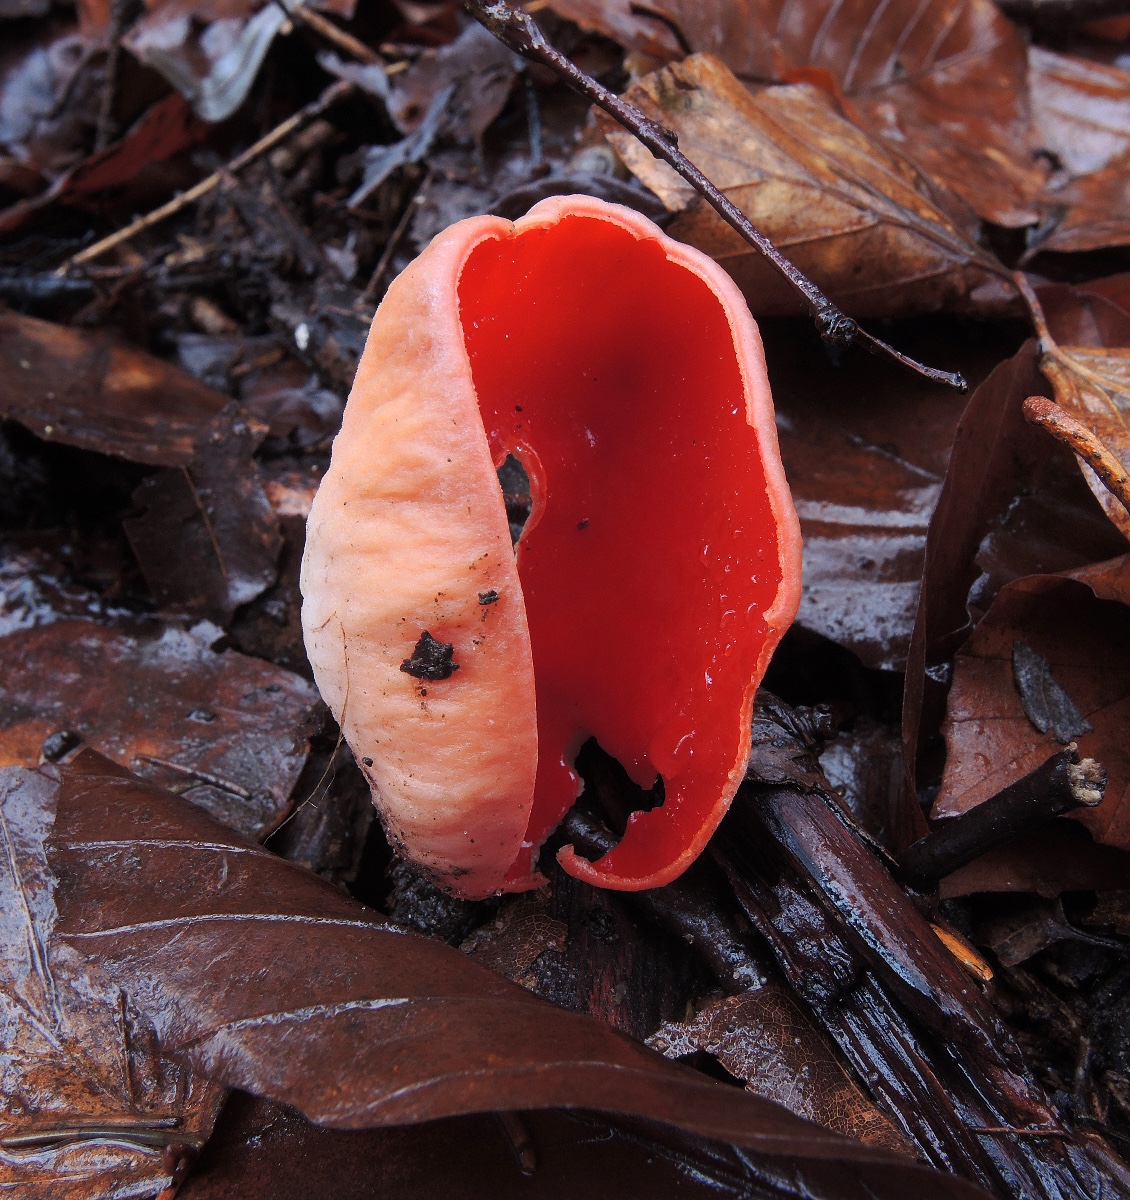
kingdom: Fungi
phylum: Ascomycota
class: Pezizomycetes
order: Pezizales
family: Sarcoscyphaceae
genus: Sarcoscypha
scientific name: Sarcoscypha austriaca
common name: krølhåret pragtbæger
